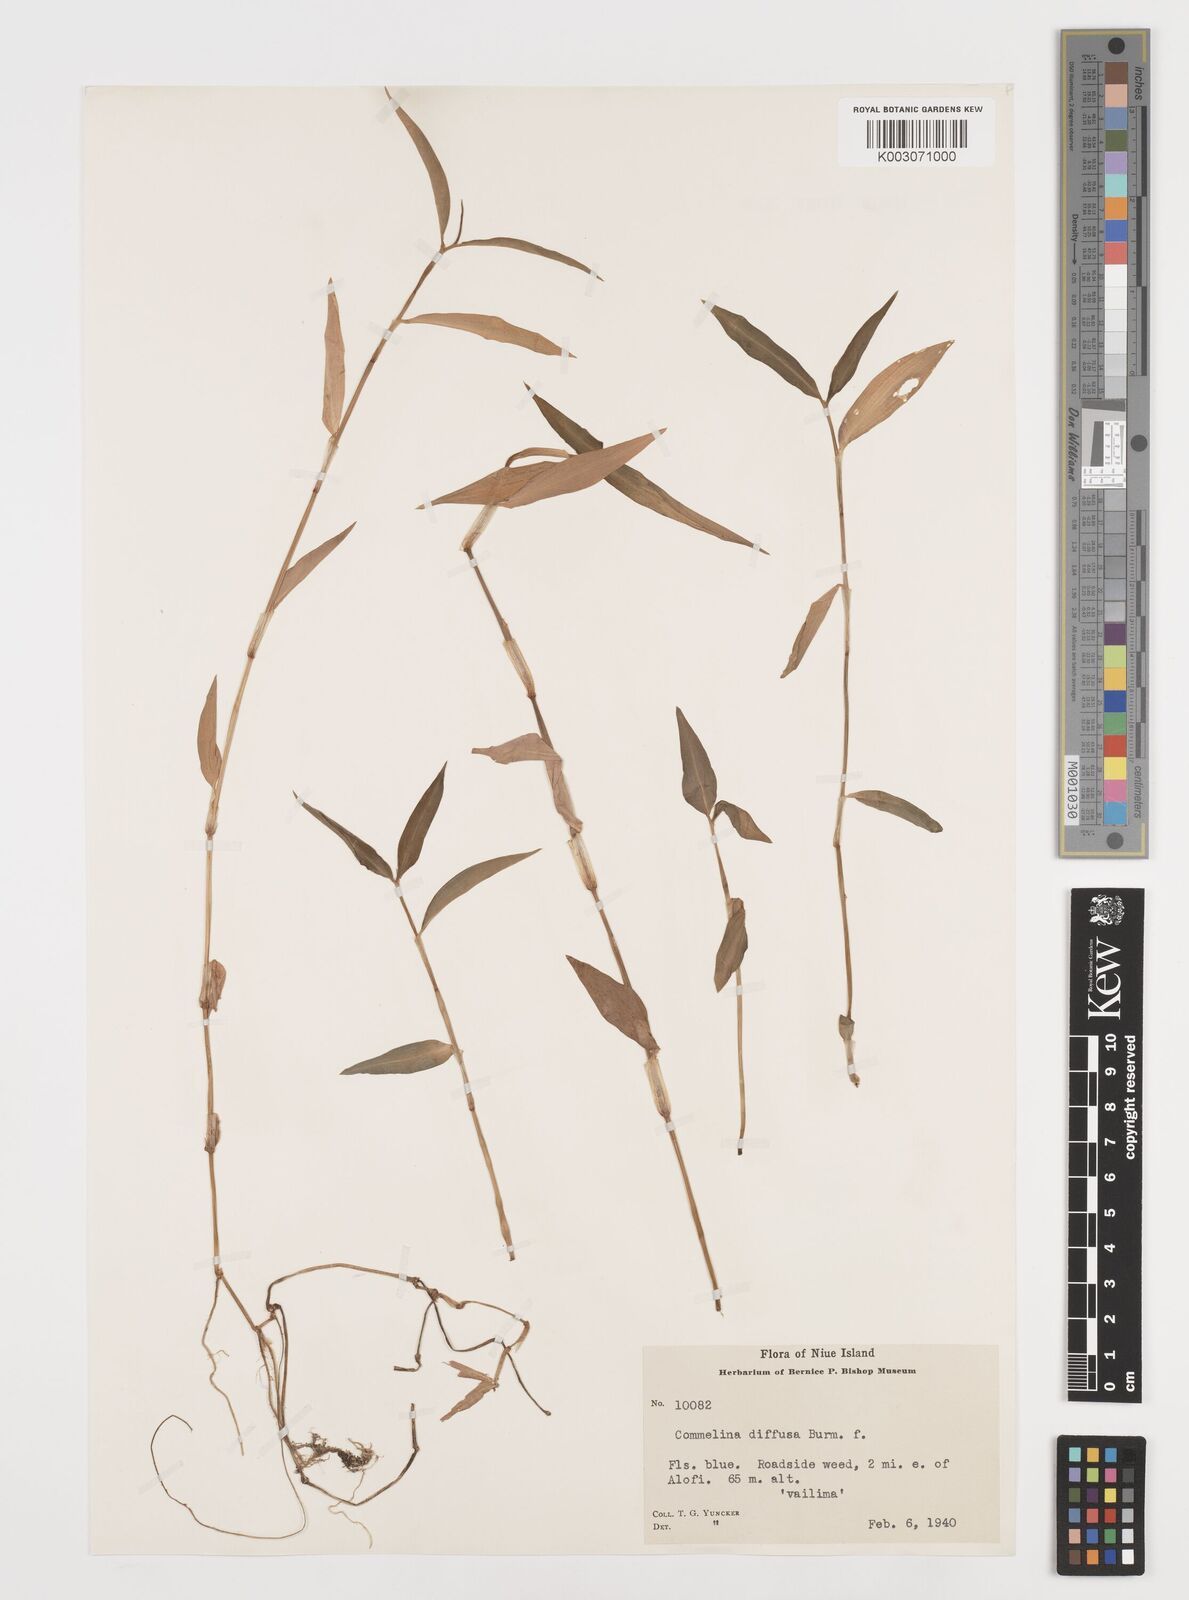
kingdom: Plantae
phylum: Tracheophyta
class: Liliopsida
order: Commelinales
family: Commelinaceae
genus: Commelina
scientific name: Commelina diffusa
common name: Climbing dayflower
